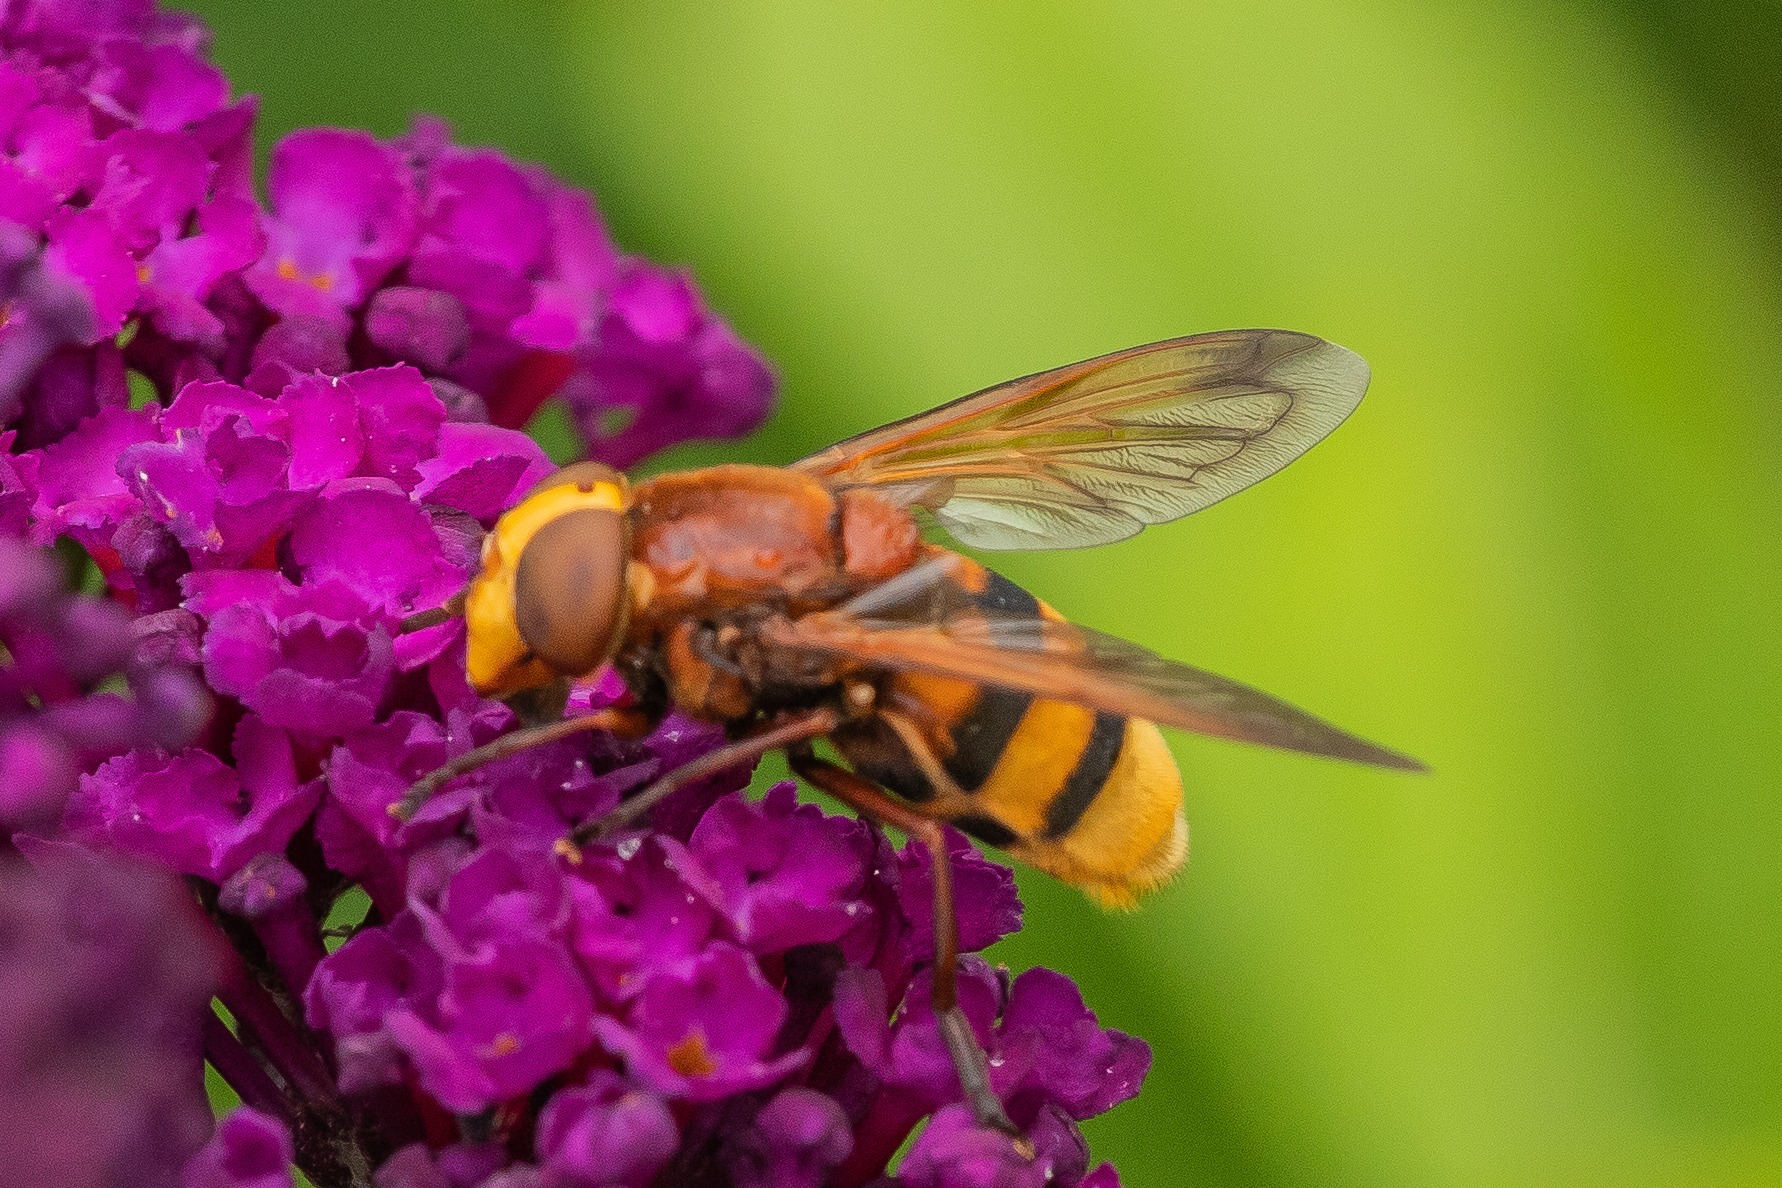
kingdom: Animalia
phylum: Arthropoda
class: Insecta
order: Diptera
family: Syrphidae
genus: Volucella
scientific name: Volucella zonaria
